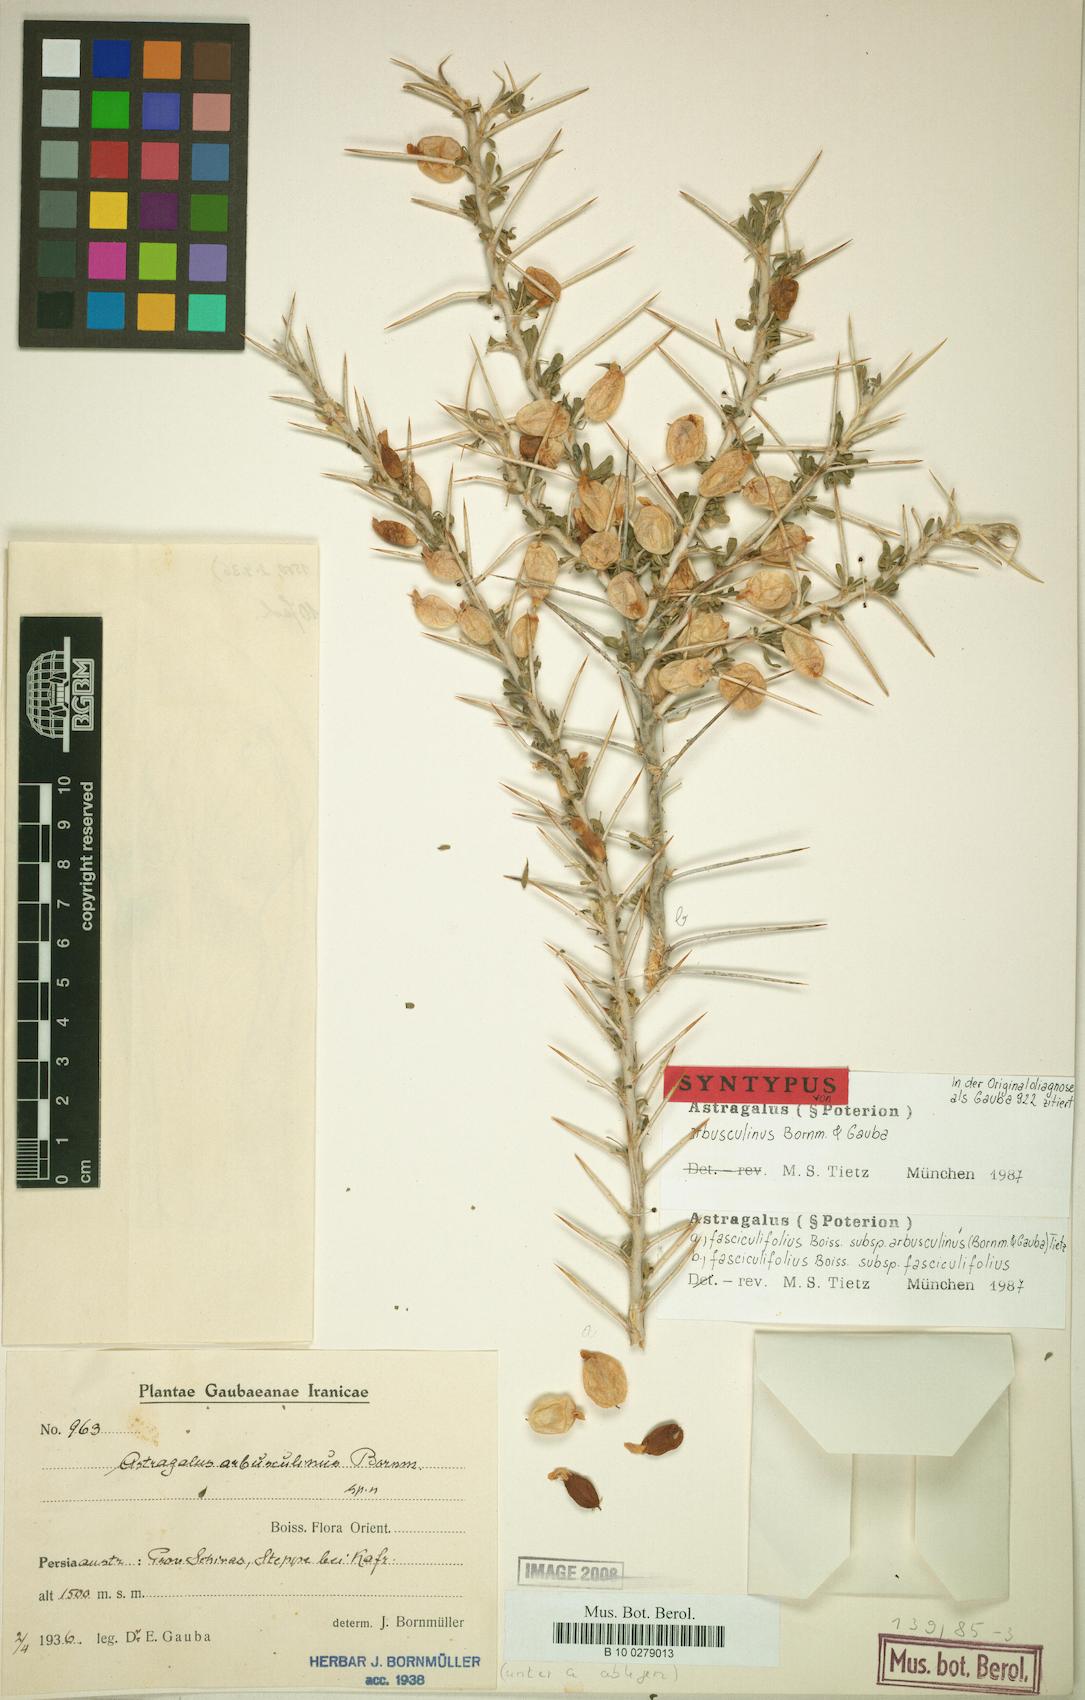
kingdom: Plantae
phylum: Tracheophyta
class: Magnoliopsida
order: Fabales
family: Fabaceae
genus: Astragalus
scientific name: Astragalus fasciculifolius
